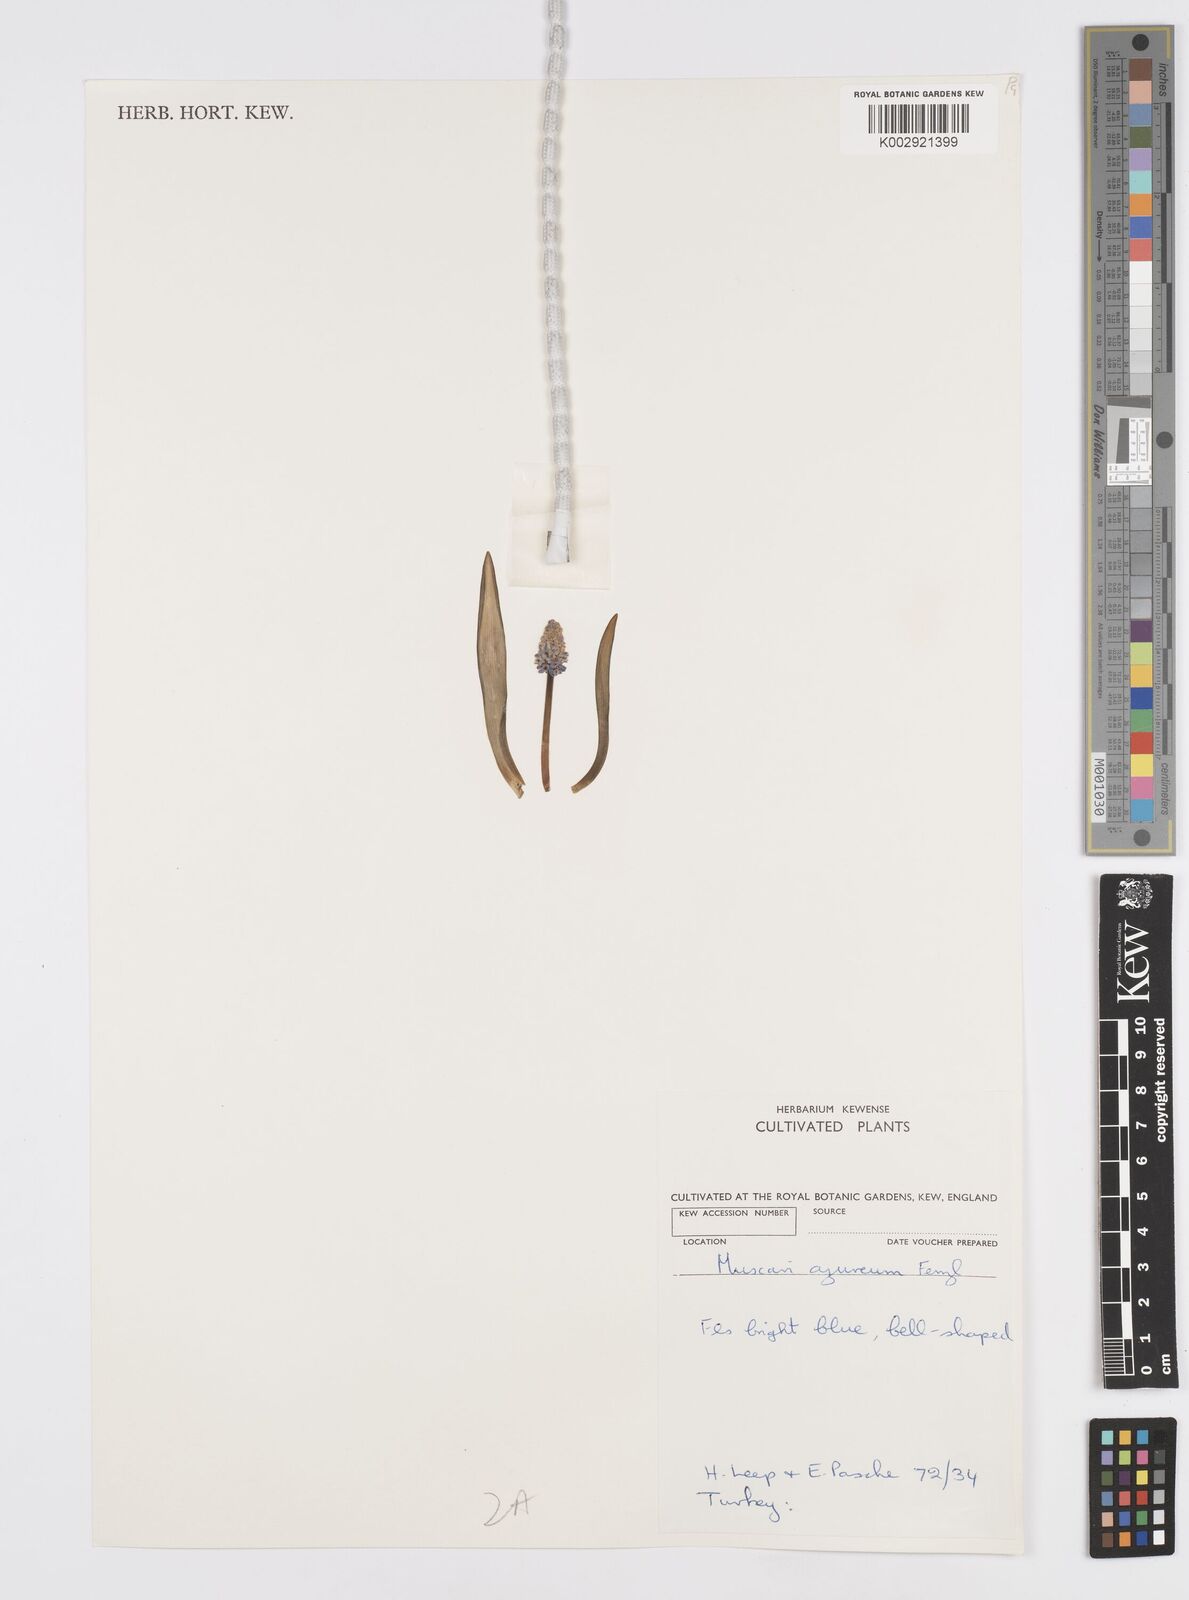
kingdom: Plantae
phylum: Tracheophyta
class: Liliopsida
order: Asparagales
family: Asparagaceae
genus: Muscari
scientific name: Muscari
